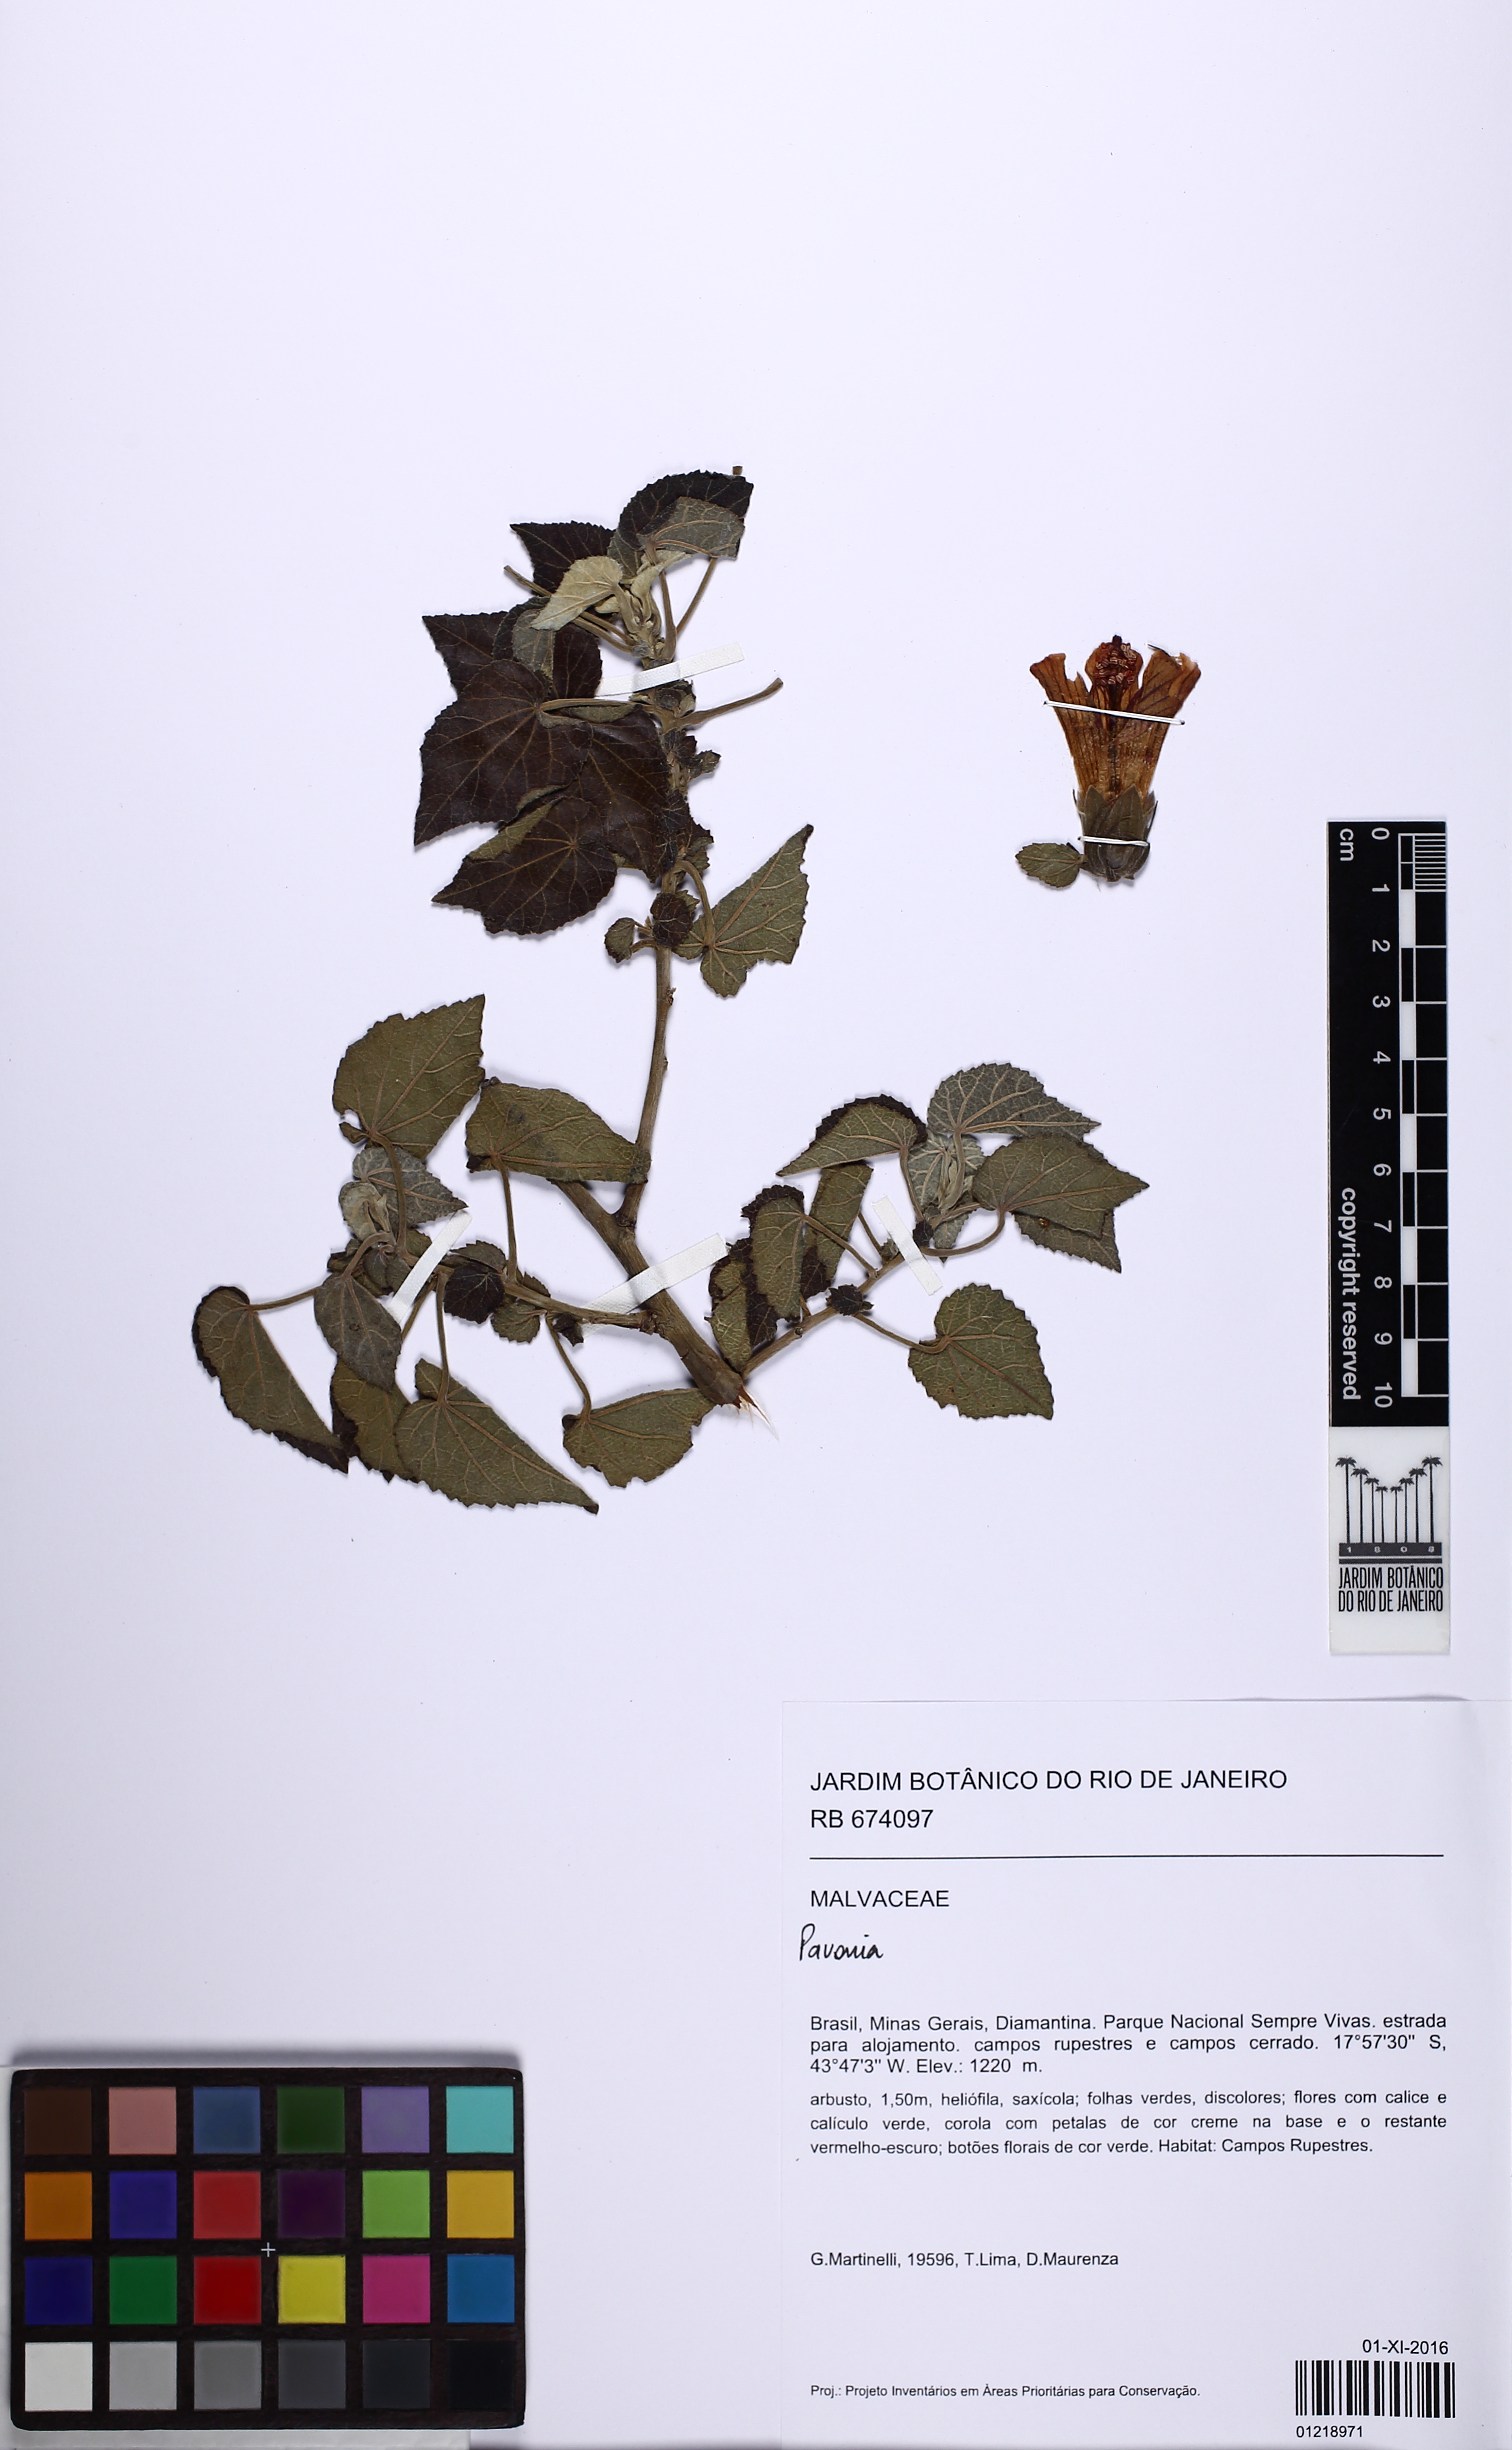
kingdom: Plantae
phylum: Tracheophyta
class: Magnoliopsida
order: Malvales
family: Malvaceae
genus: Pavonia
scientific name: Pavonia
